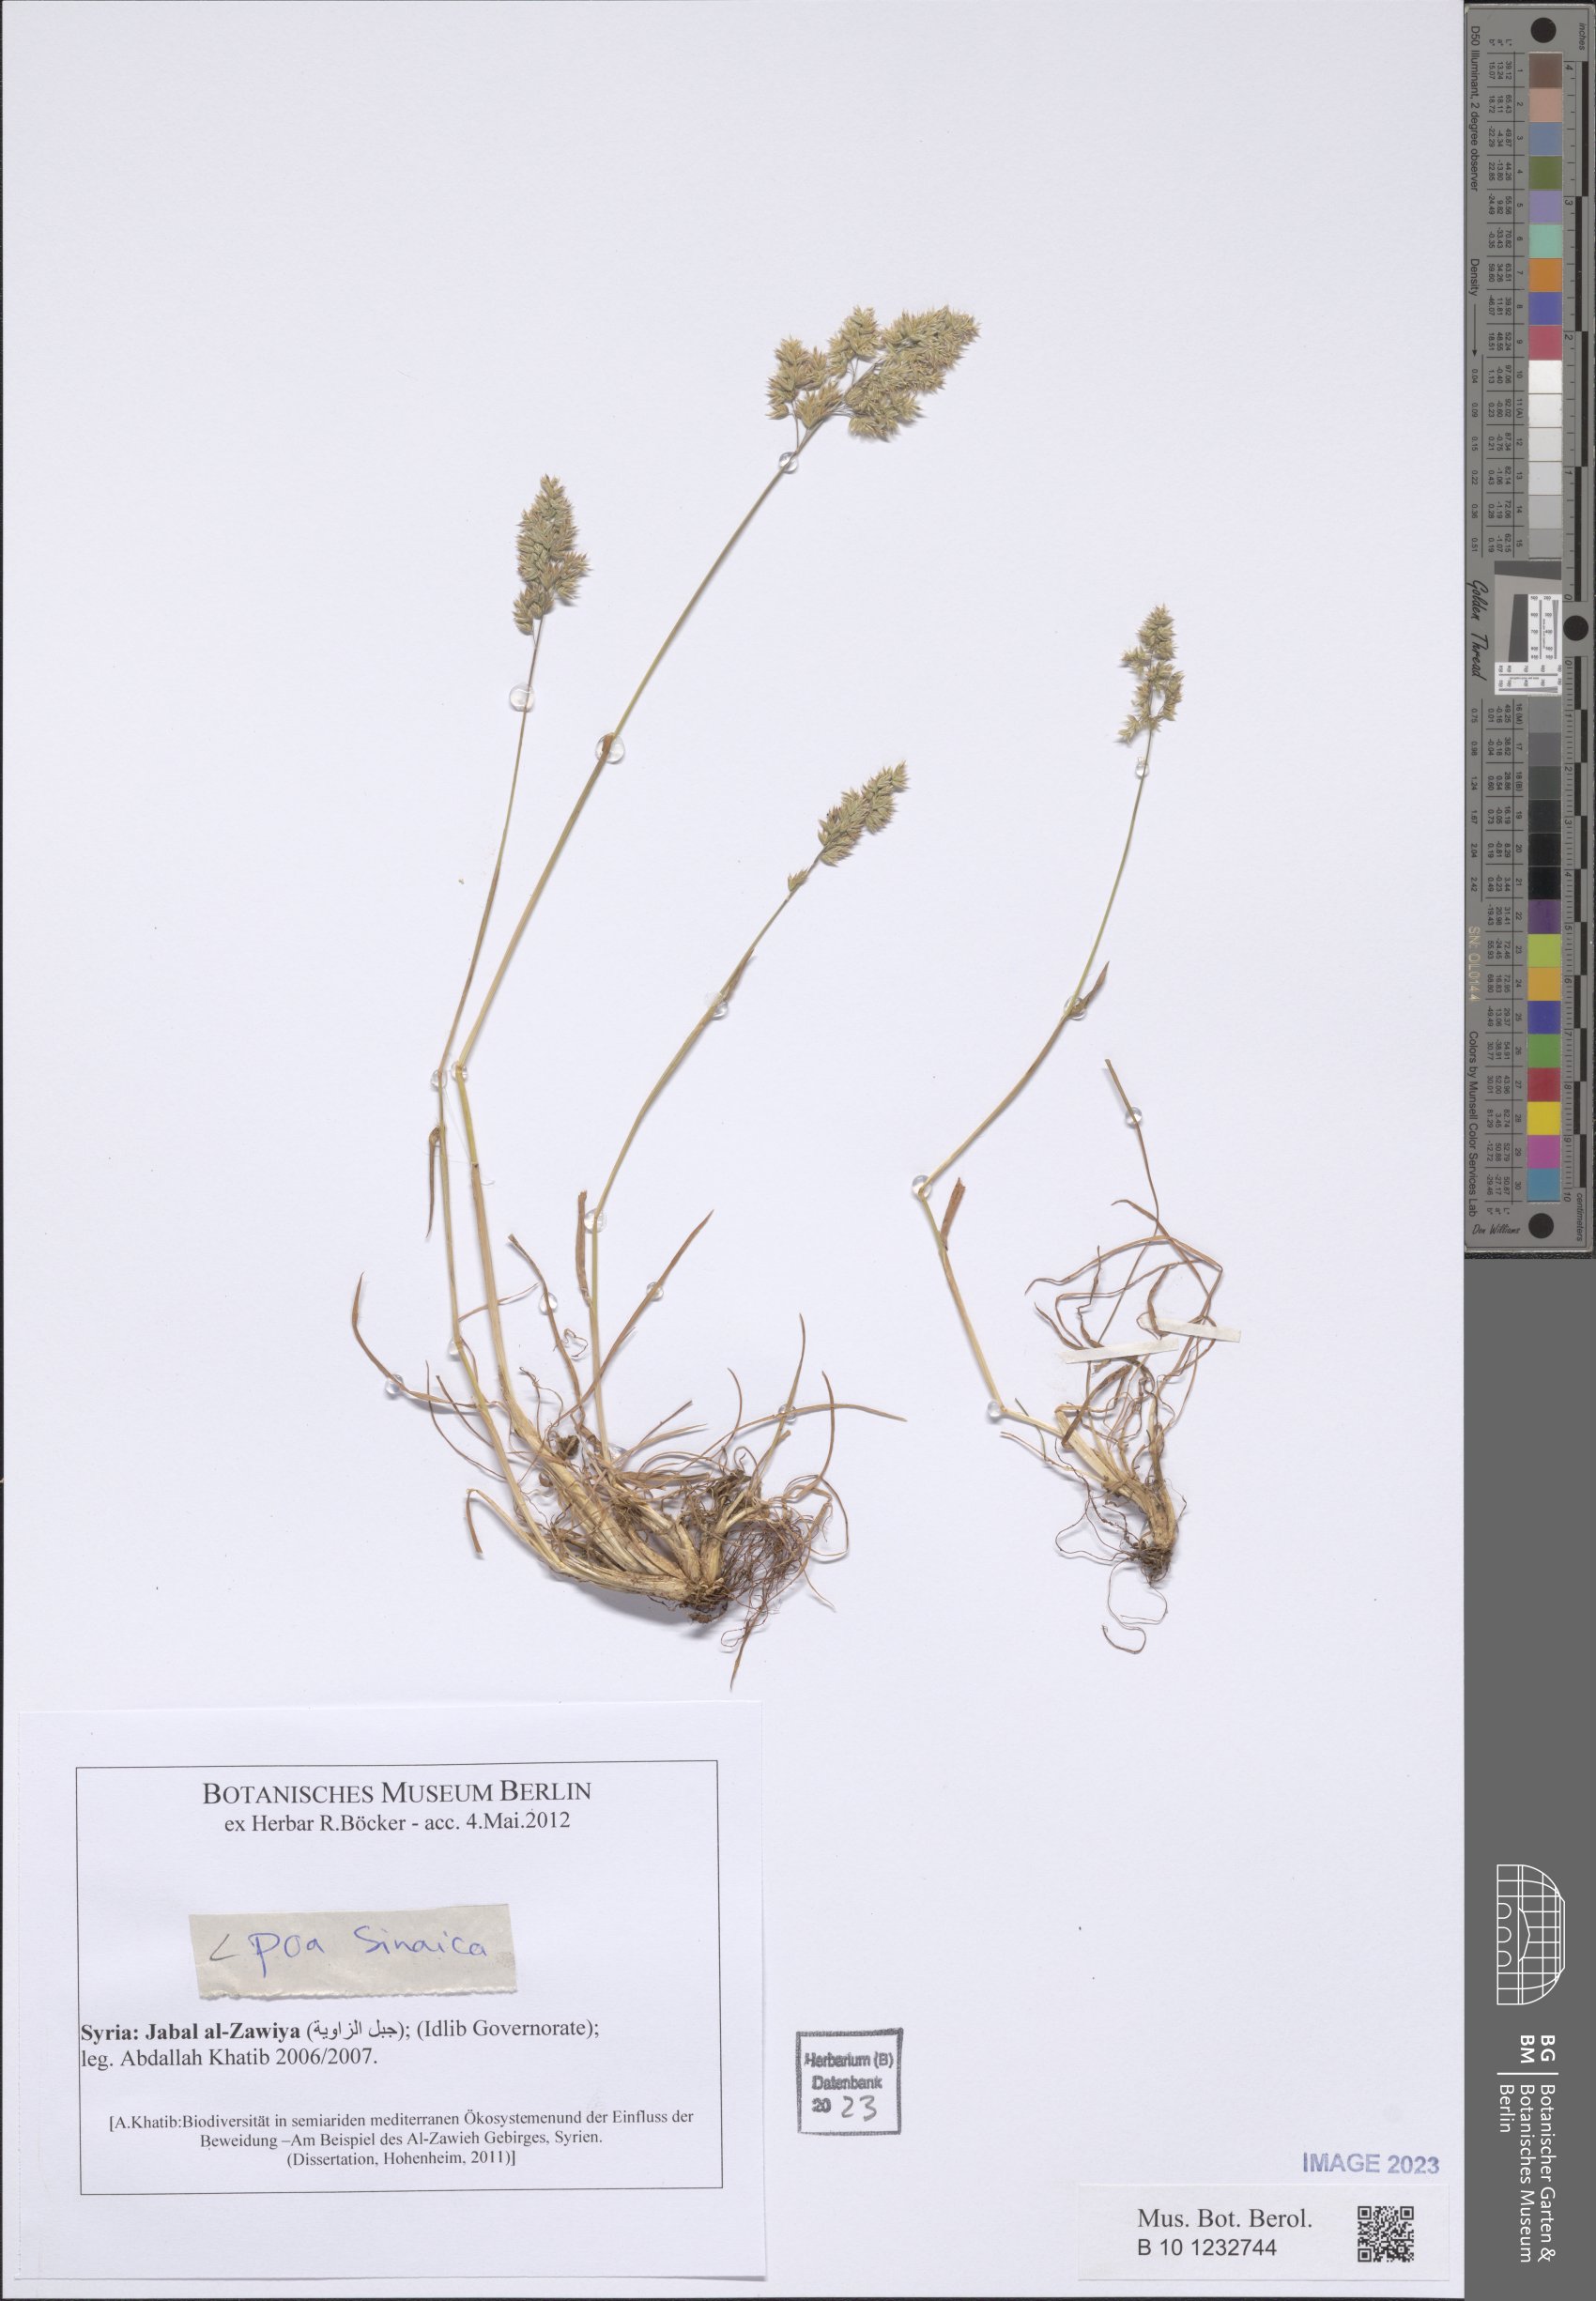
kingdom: Plantae
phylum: Tracheophyta
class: Liliopsida
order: Poales
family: Poaceae
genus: Poa
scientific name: Poa sinaica
